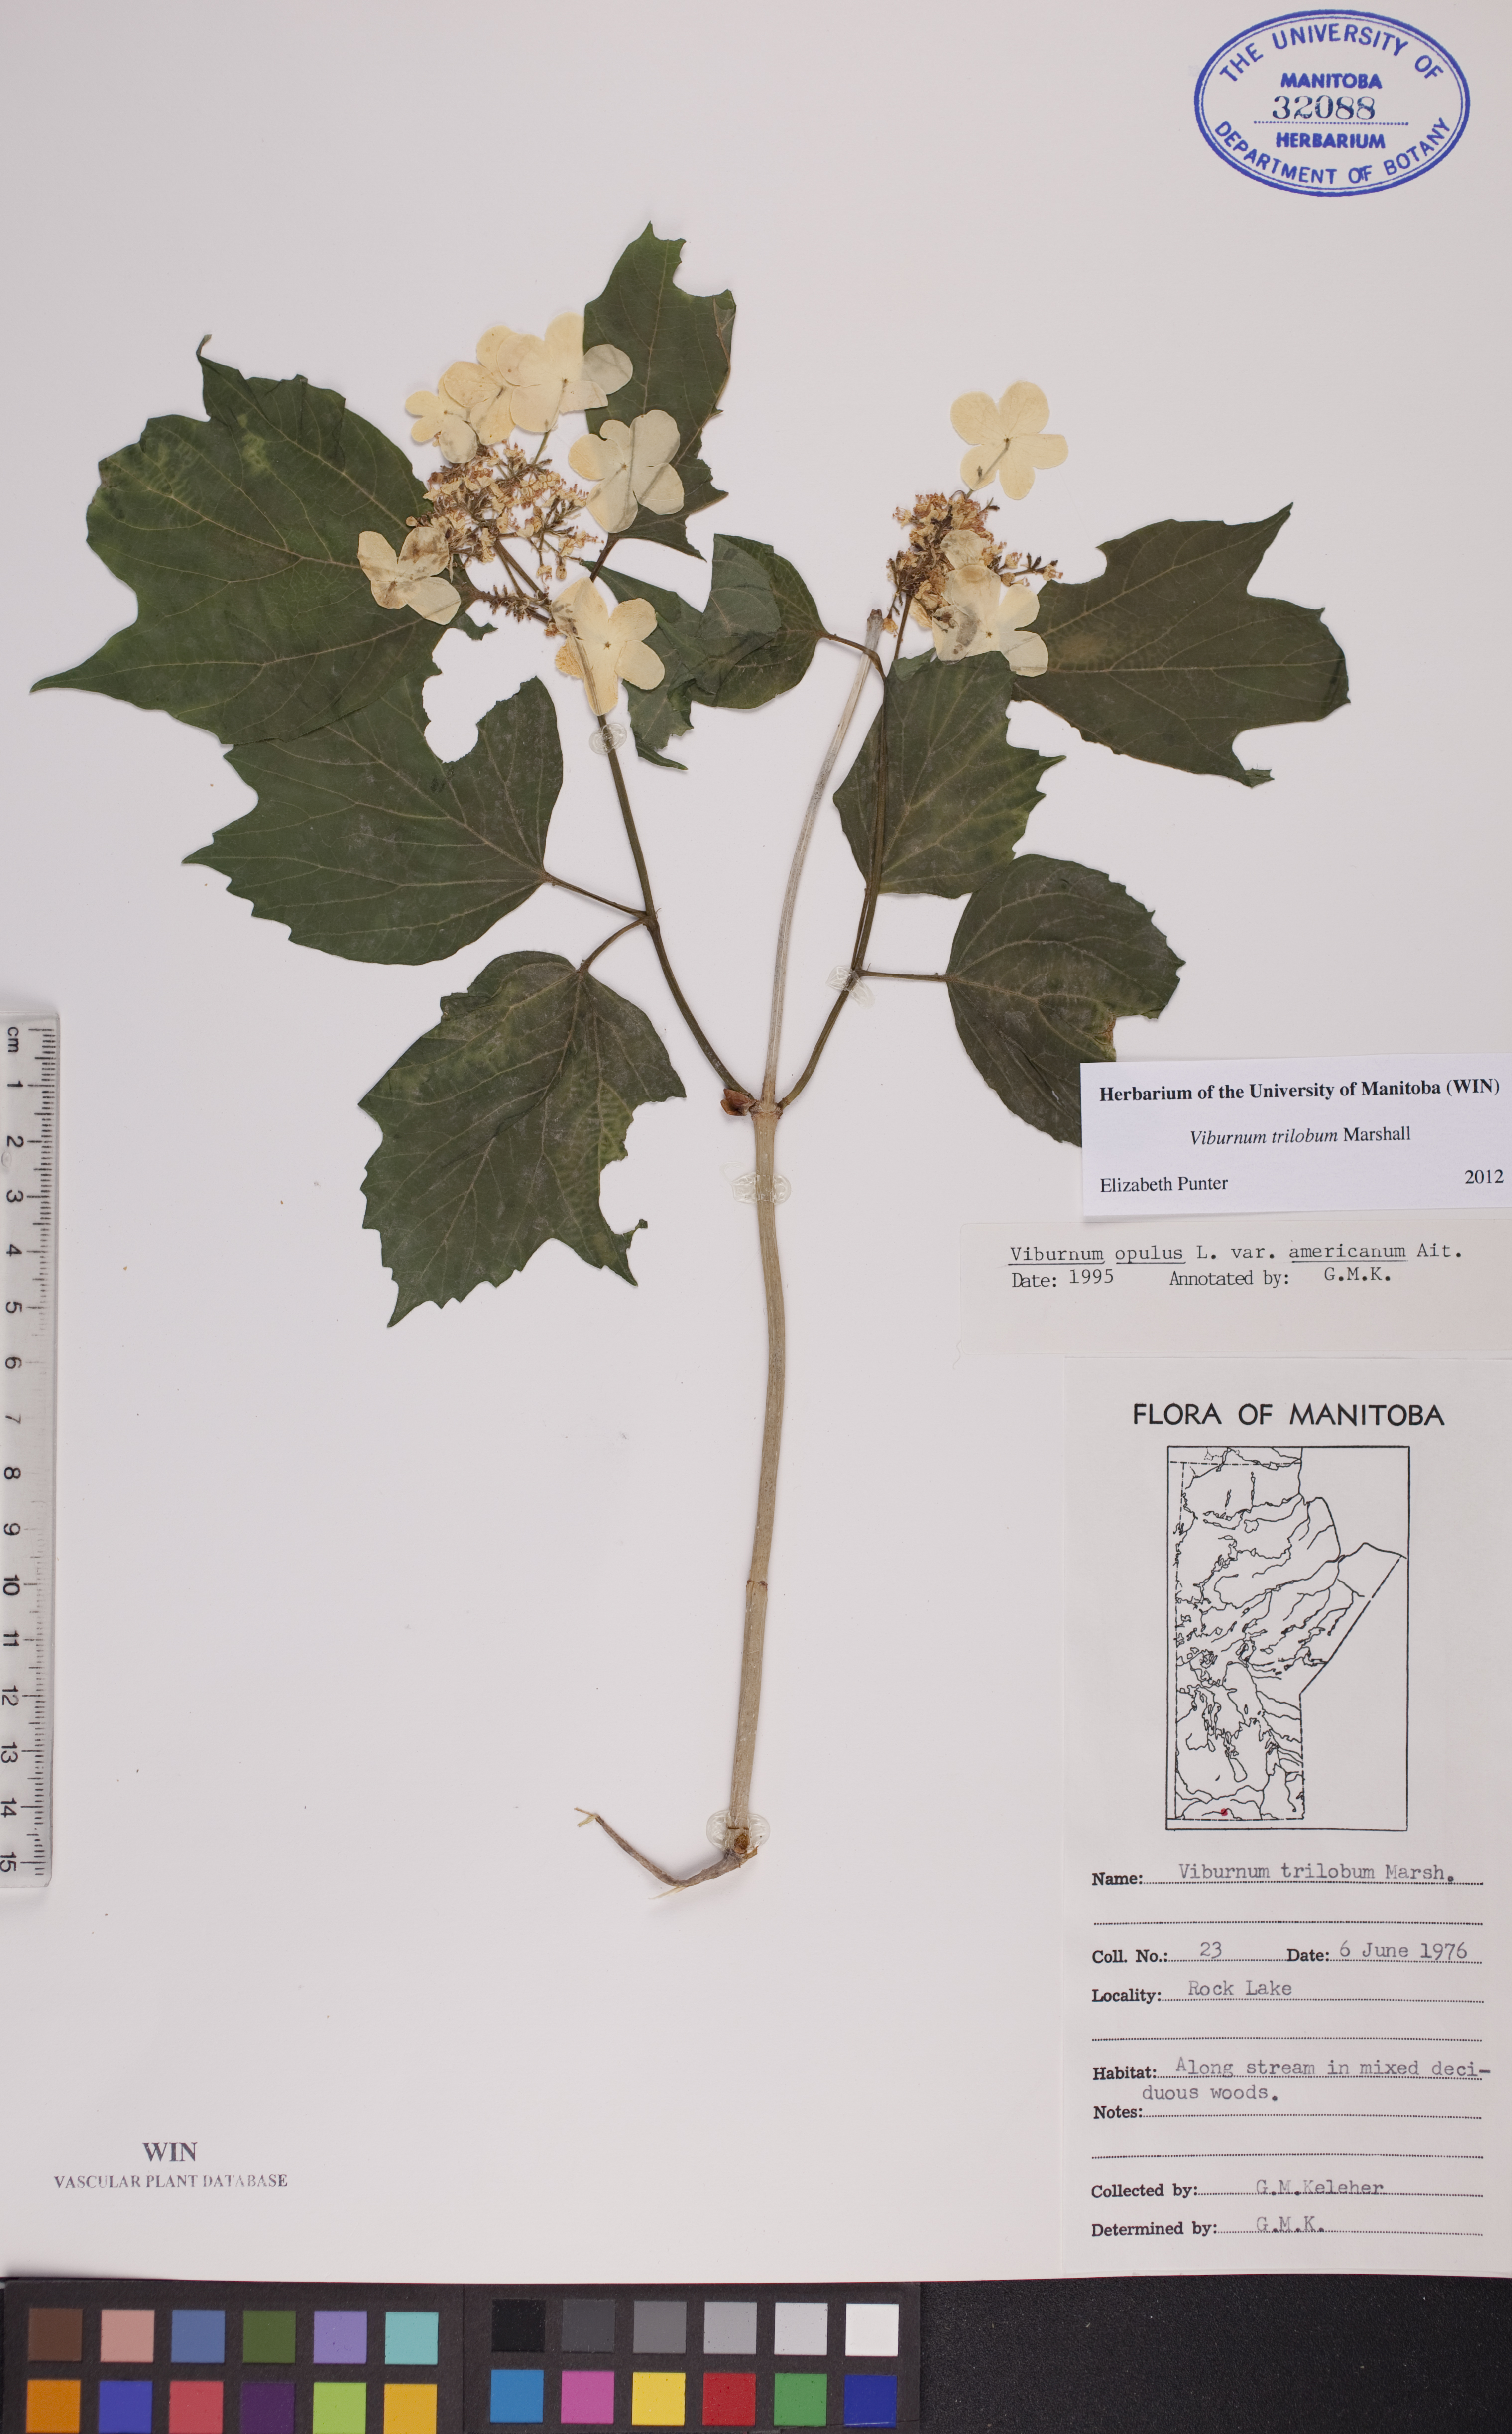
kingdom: Plantae
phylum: Tracheophyta
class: Magnoliopsida
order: Dipsacales
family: Viburnaceae
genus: Viburnum
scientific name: Viburnum opulus
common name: Guelder-rose
